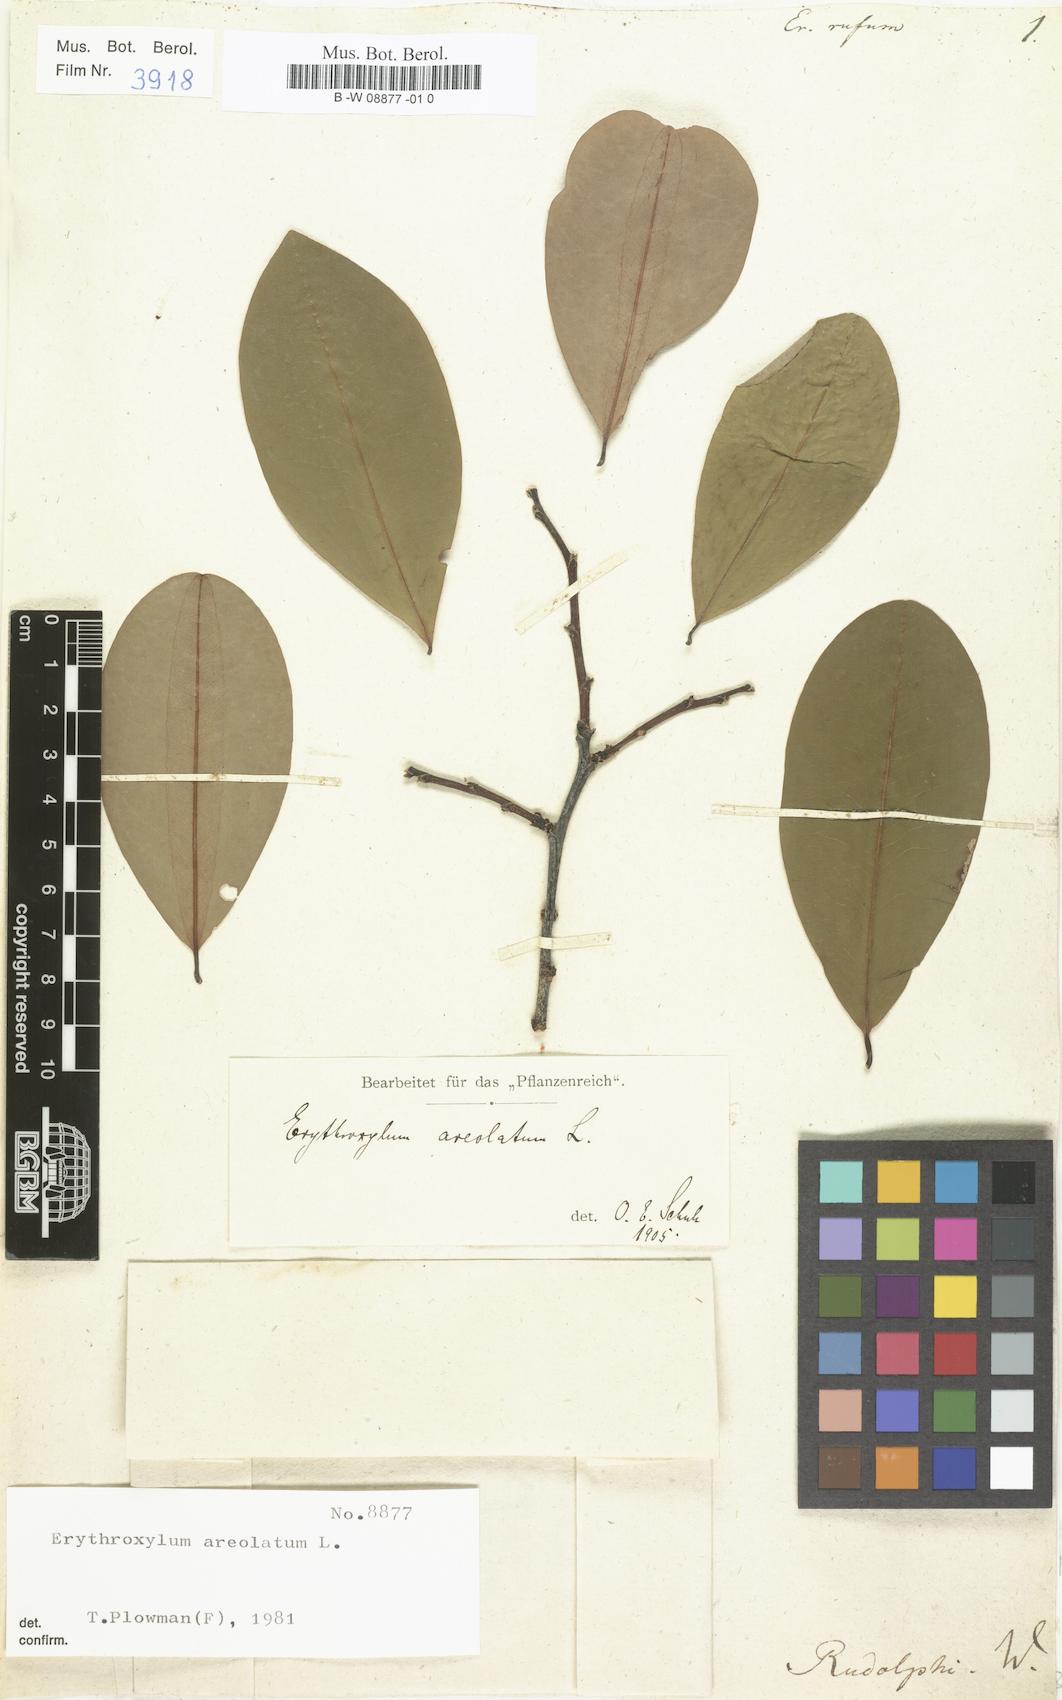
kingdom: Plantae
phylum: Tracheophyta
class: Magnoliopsida
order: Malpighiales
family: Erythroxylaceae
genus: Erythroxylum
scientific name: Erythroxylum rufum
